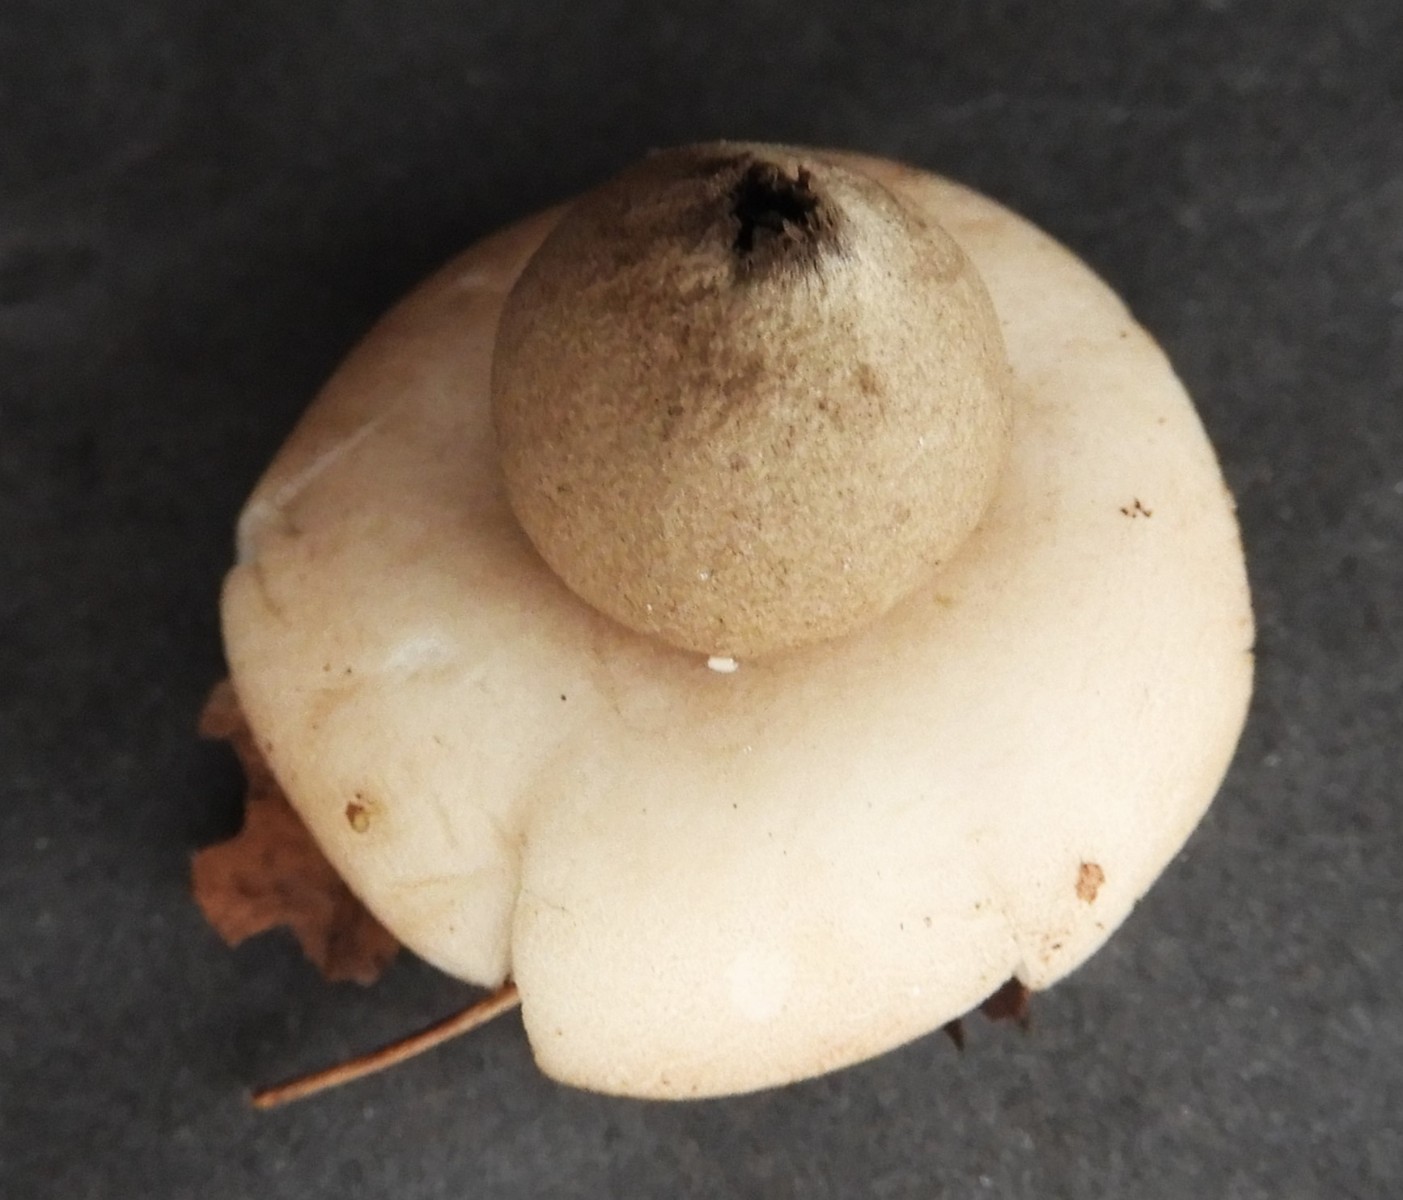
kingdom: Fungi
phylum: Basidiomycota
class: Agaricomycetes
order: Geastrales
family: Geastraceae
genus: Geastrum
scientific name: Geastrum fimbriatum
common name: frynset stjernebold
